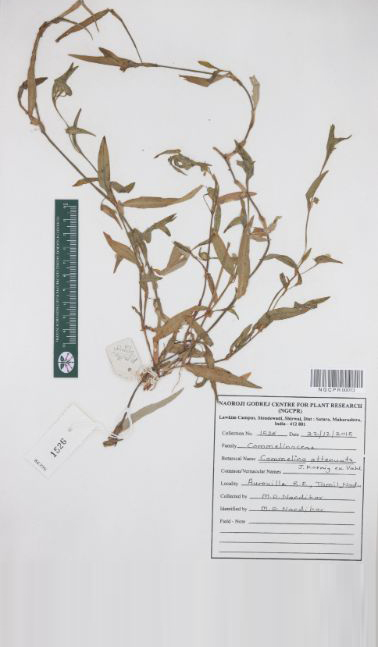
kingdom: Plantae
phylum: Tracheophyta
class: Liliopsida
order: Commelinales
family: Commelinaceae
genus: Commelina
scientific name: Commelina attenuata
